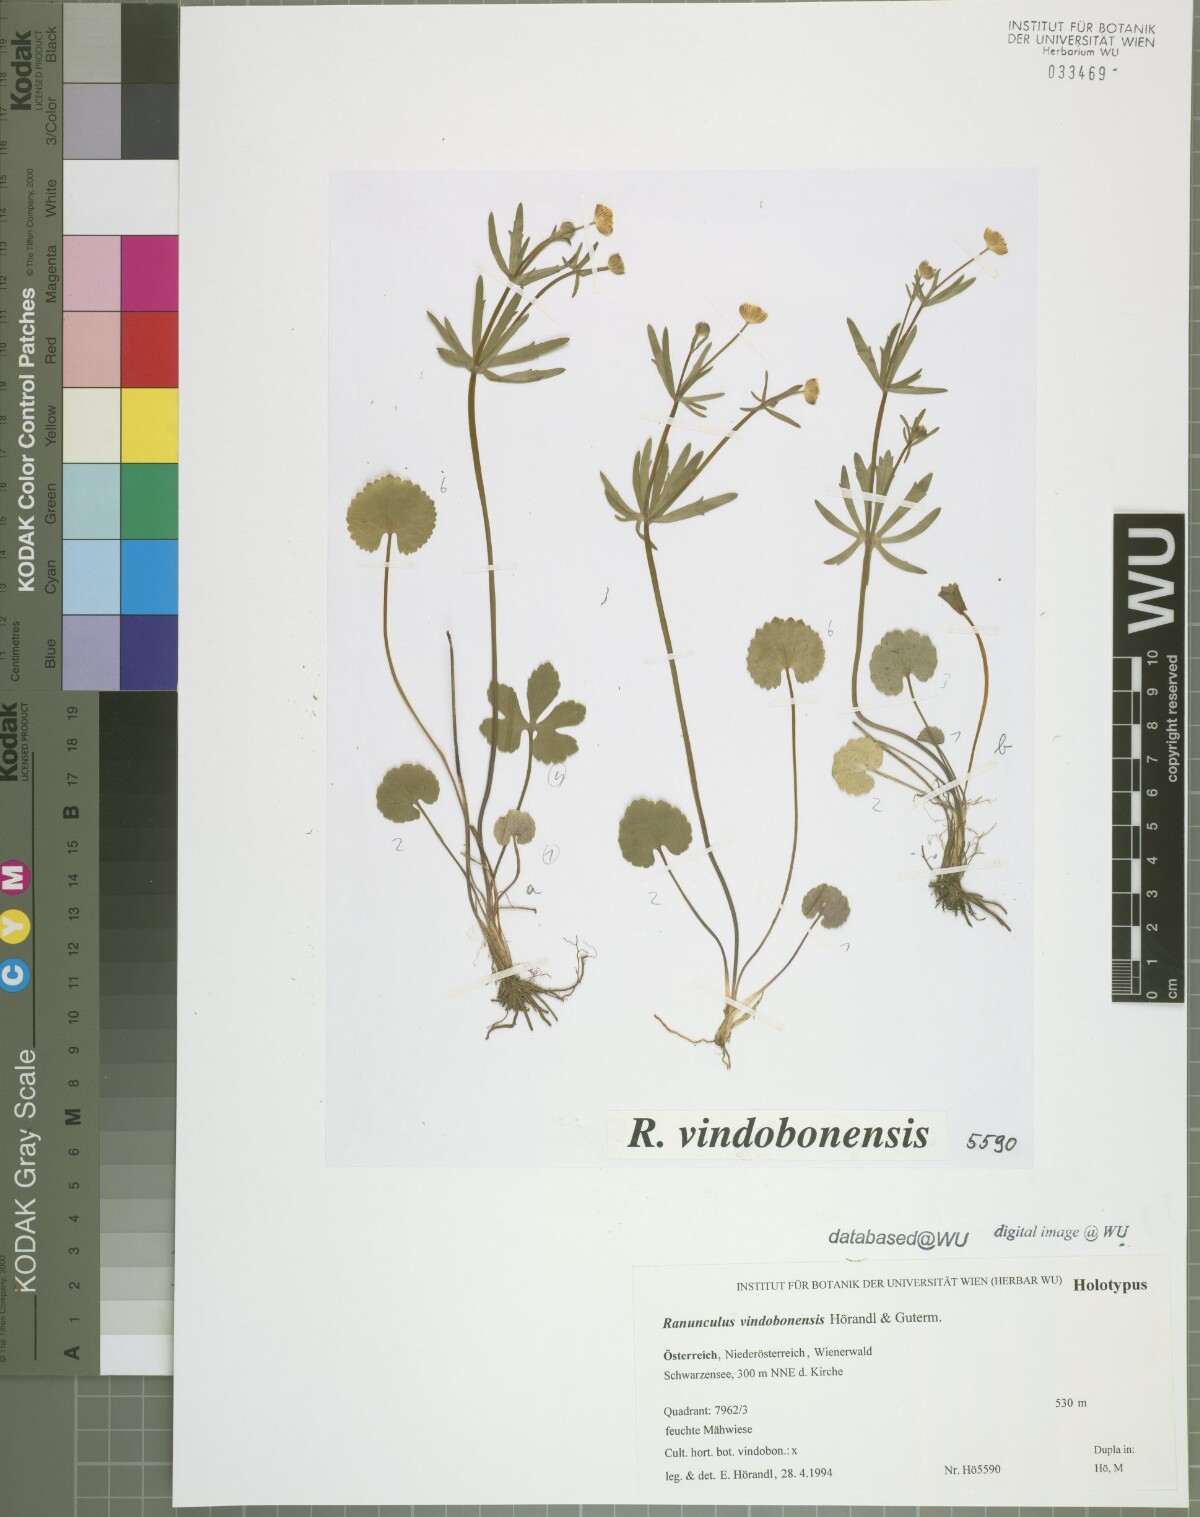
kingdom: Plantae
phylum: Tracheophyta
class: Magnoliopsida
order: Ranunculales
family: Ranunculaceae
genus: Ranunculus
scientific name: Ranunculus vindobonensis
